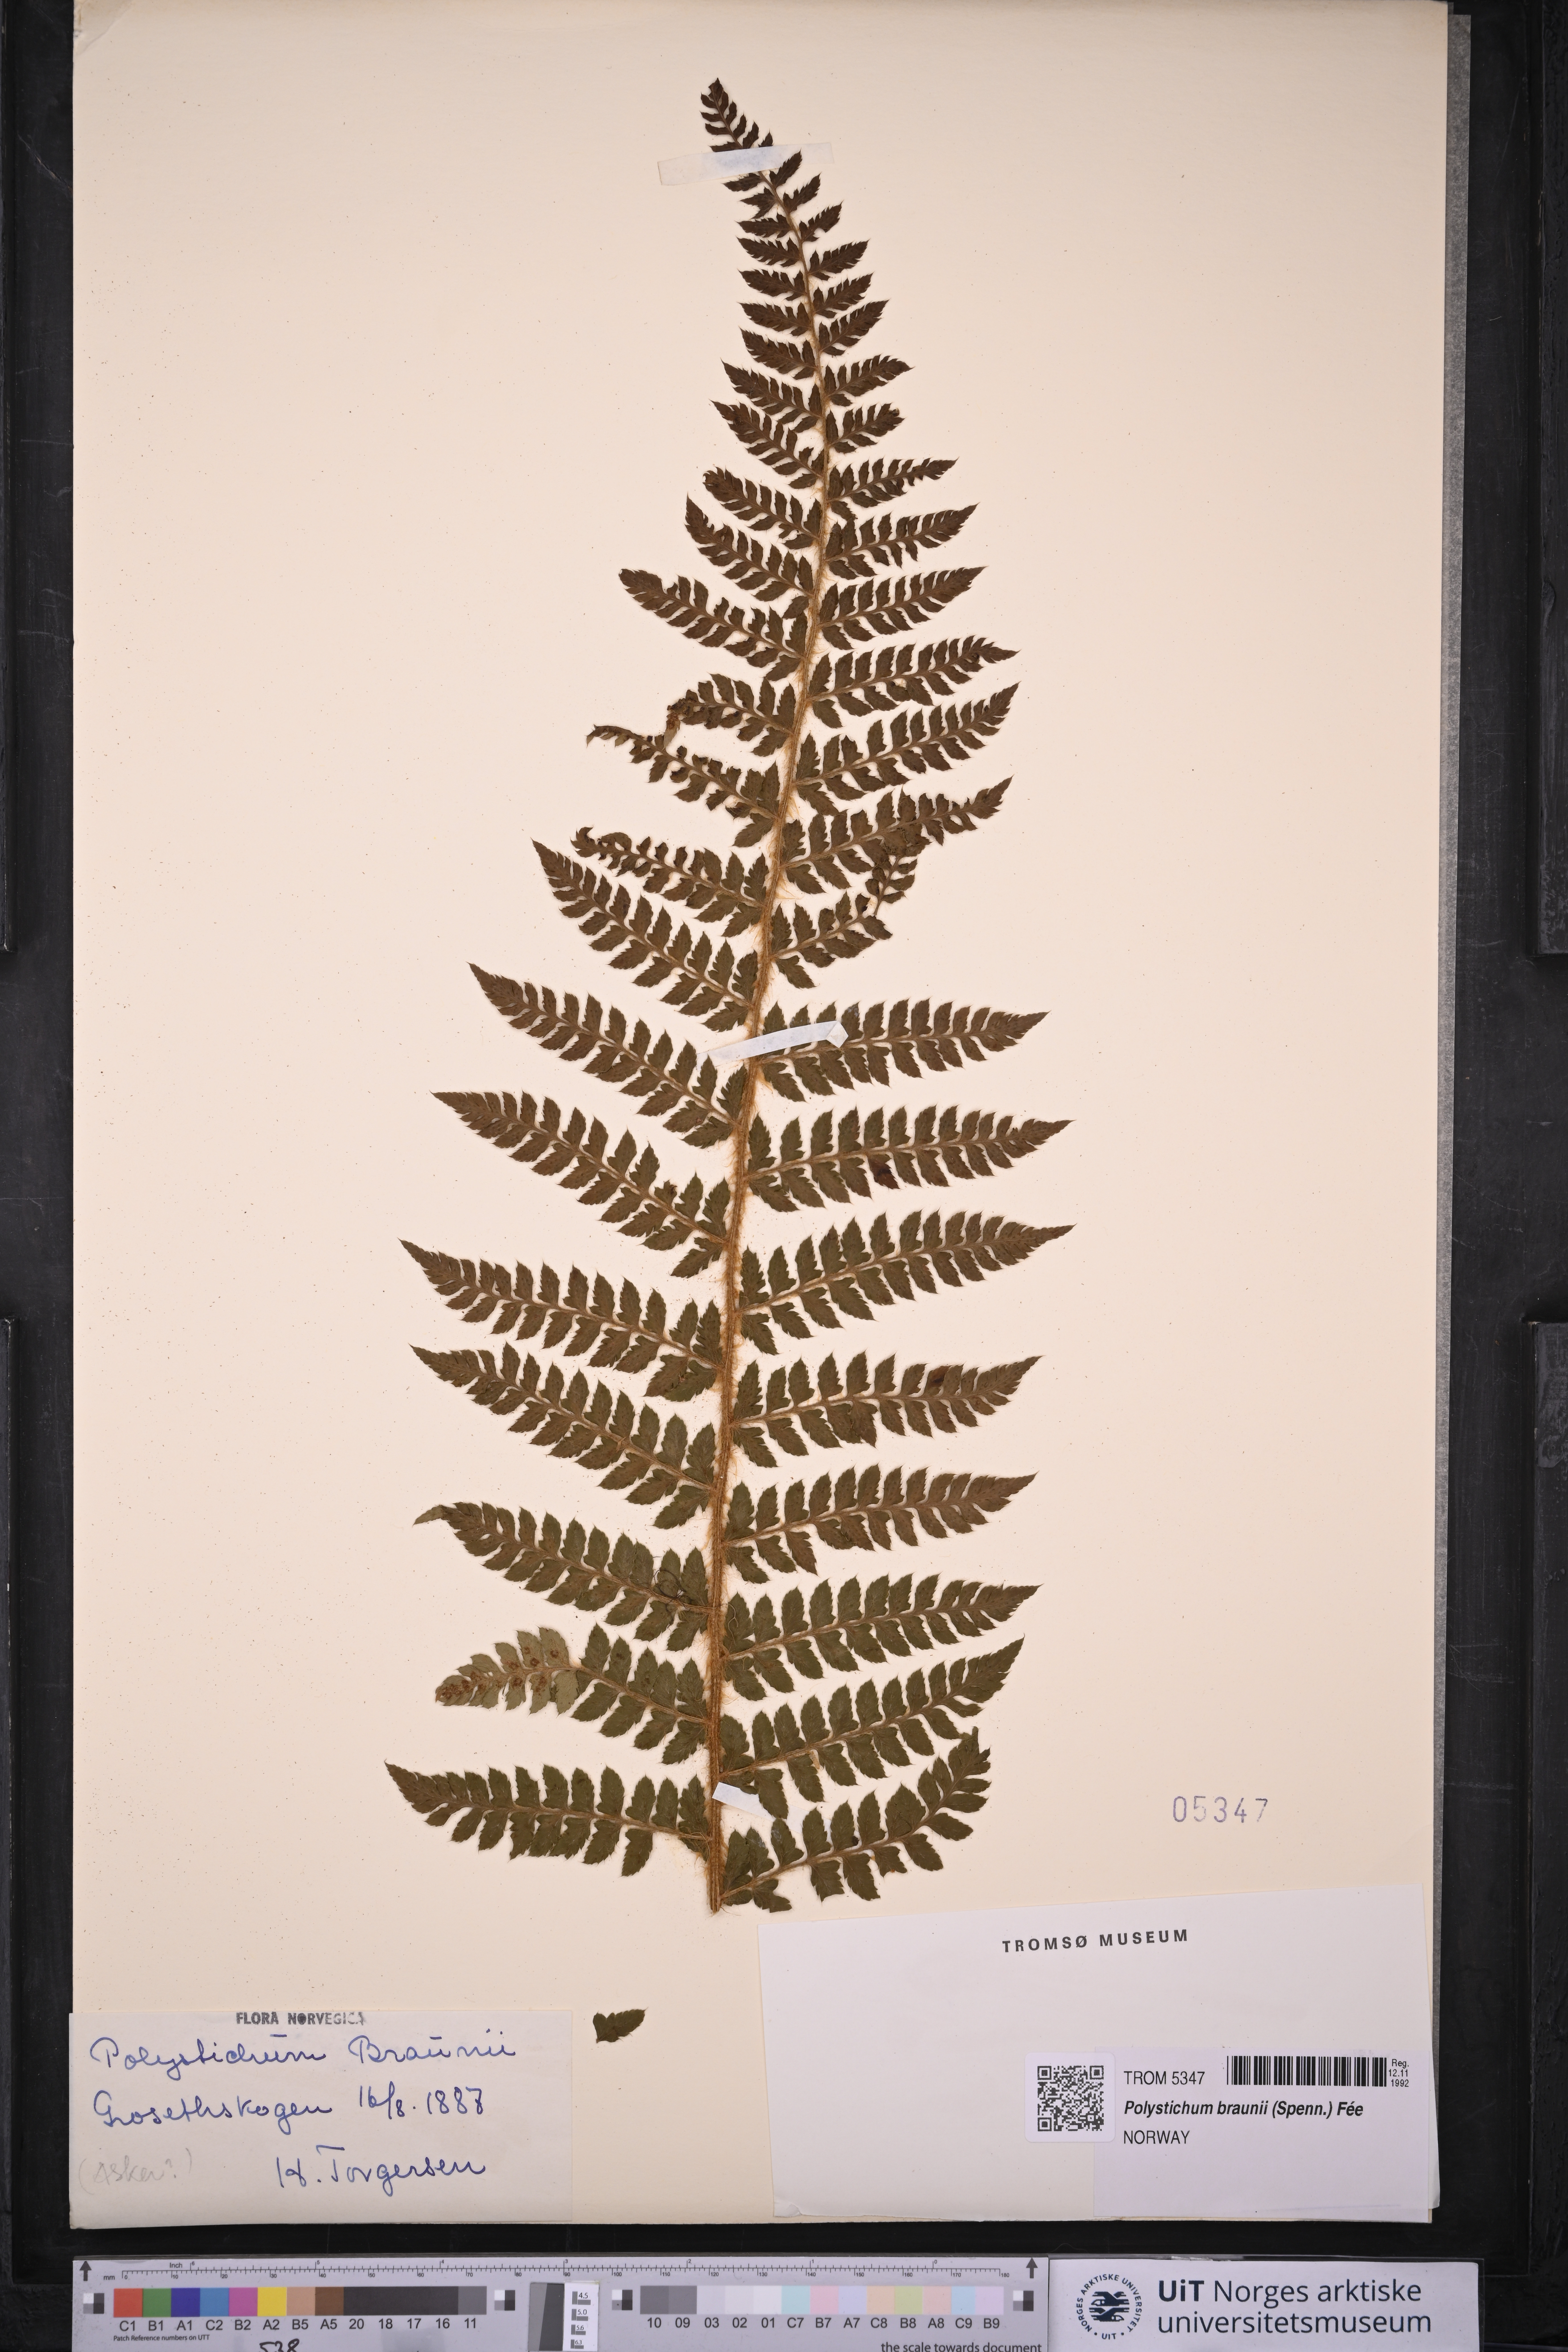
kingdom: Plantae
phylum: Tracheophyta
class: Polypodiopsida
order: Polypodiales
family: Dryopteridaceae
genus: Polystichum
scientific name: Polystichum braunii
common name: Braun's holly fern
